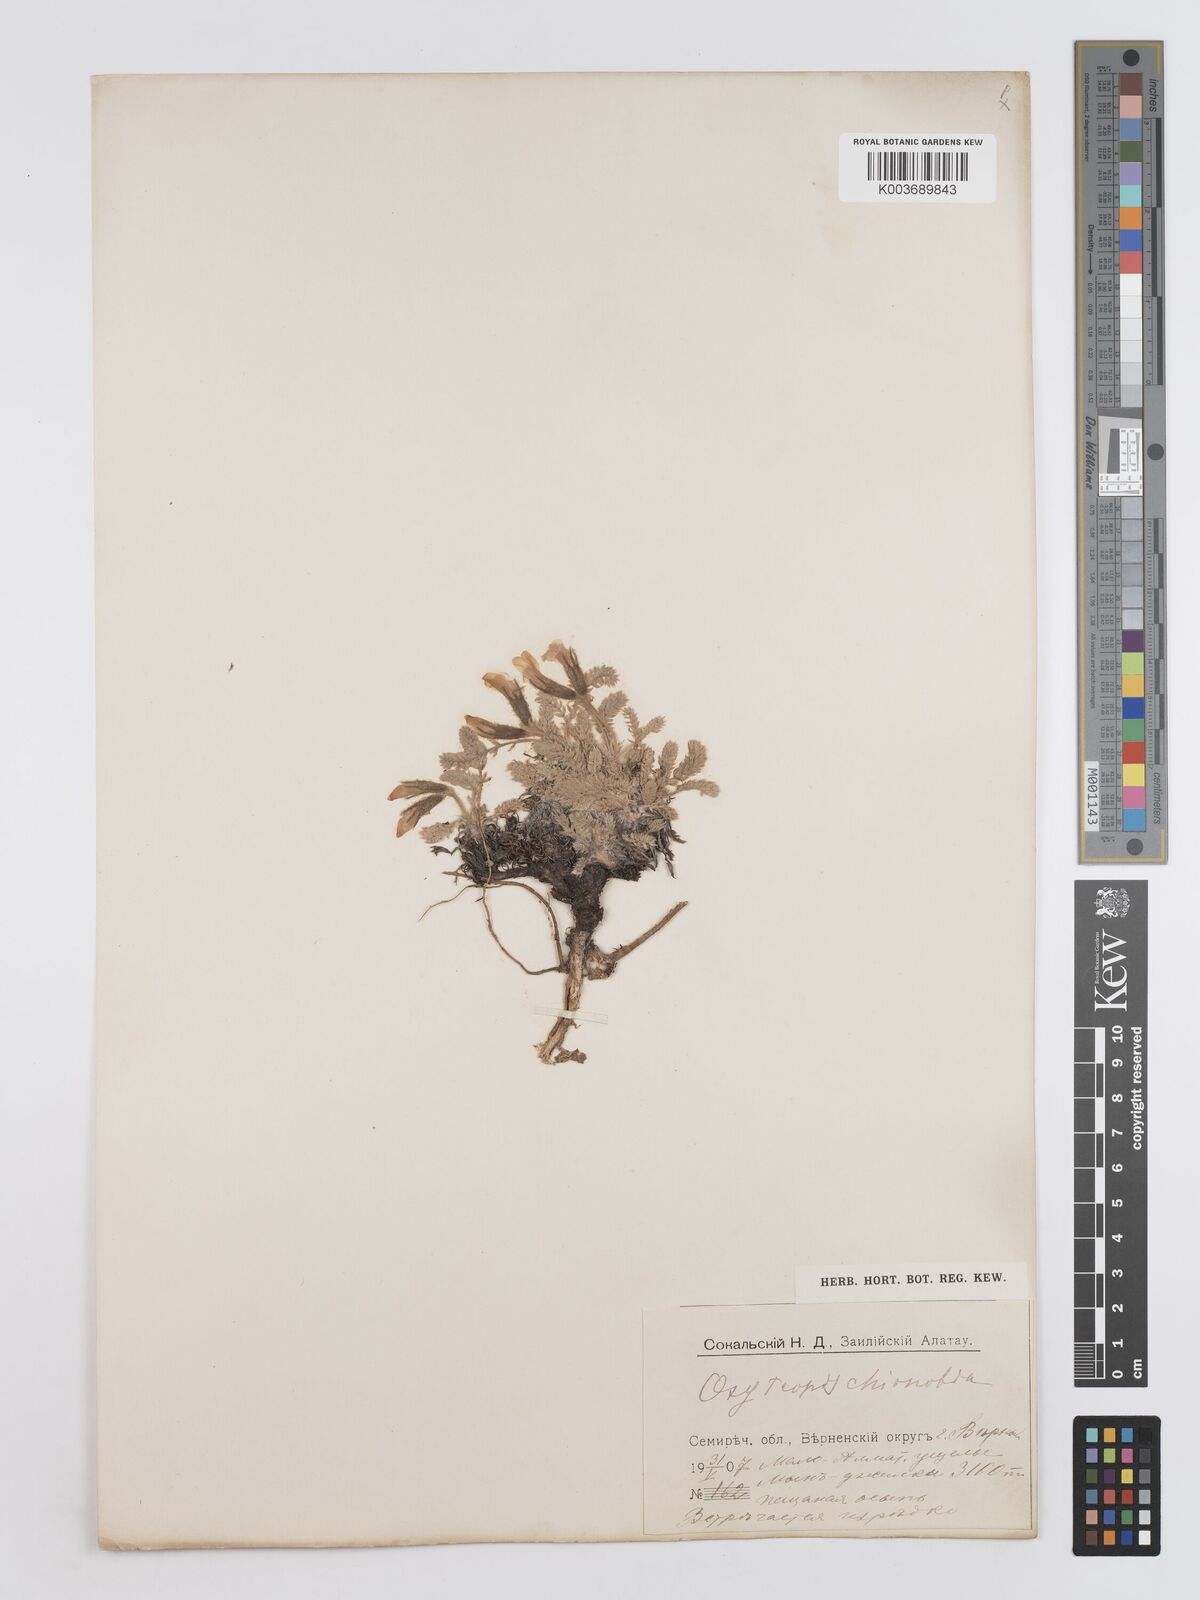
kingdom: Plantae
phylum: Tracheophyta
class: Magnoliopsida
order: Fabales
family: Fabaceae
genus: Oxytropis
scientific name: Oxytropis
